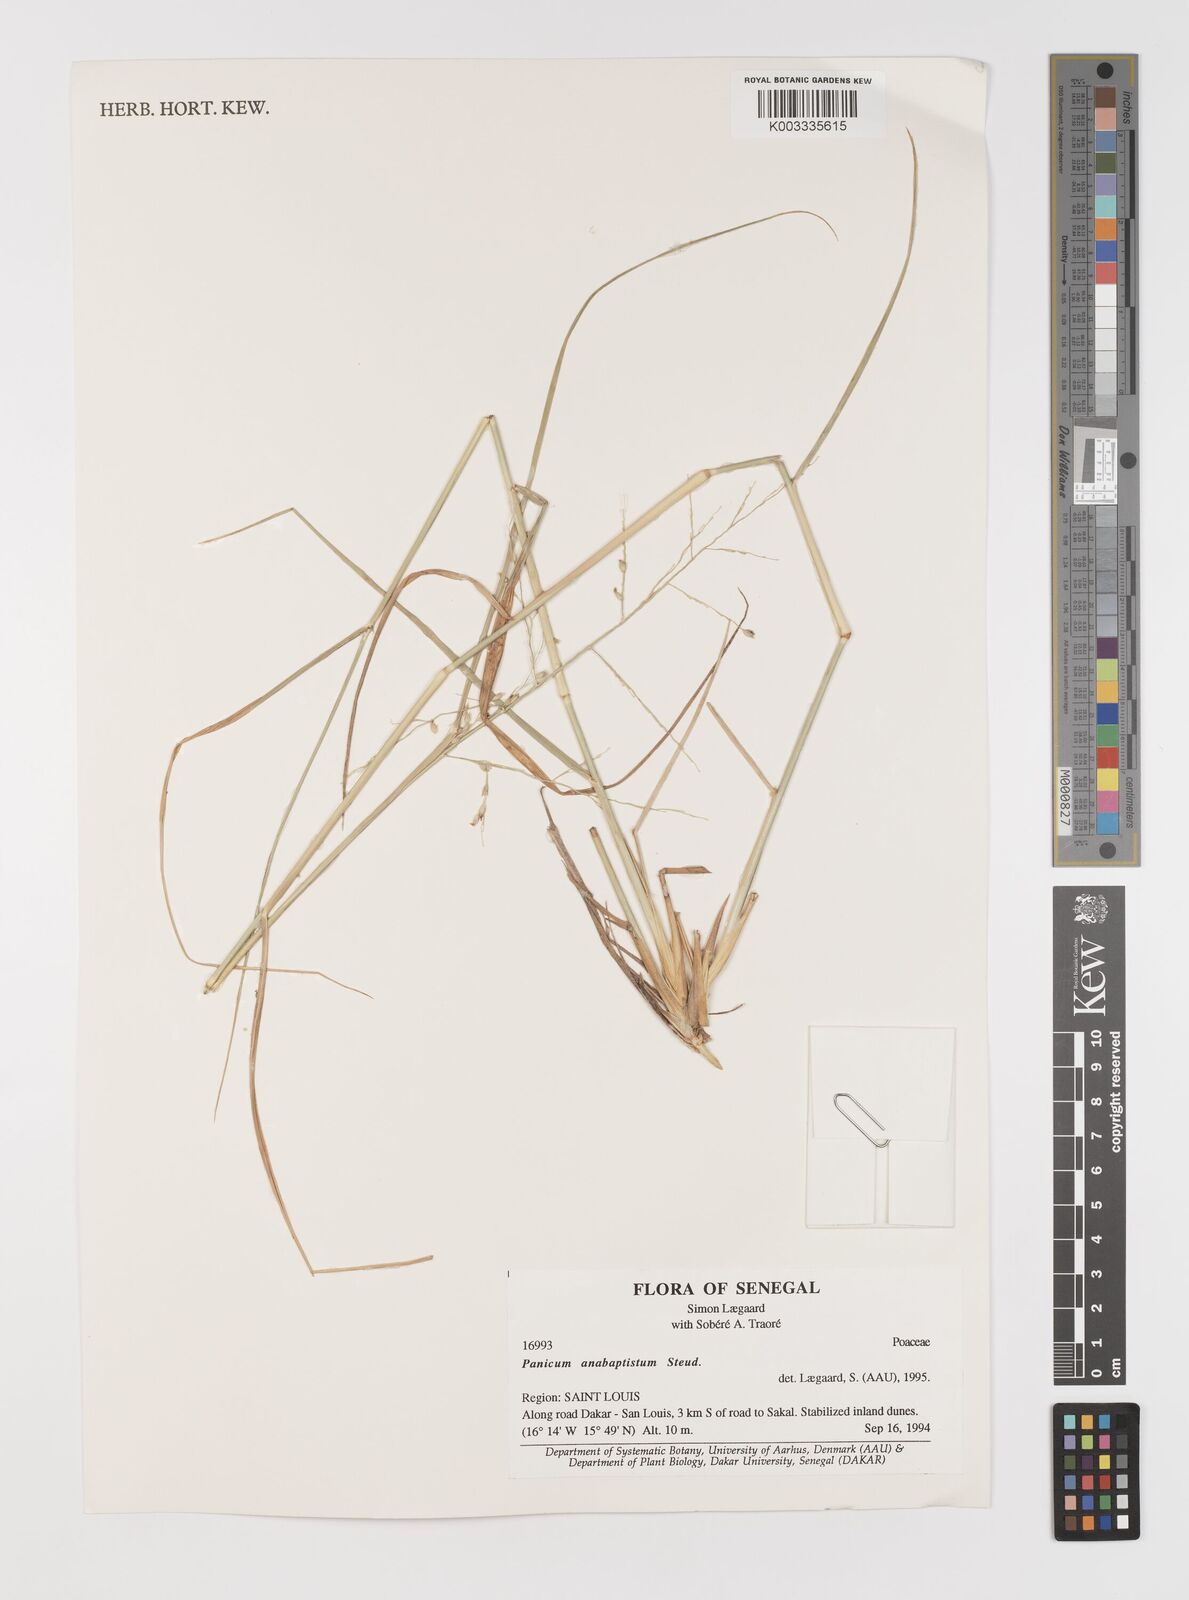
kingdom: Plantae
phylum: Tracheophyta
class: Liliopsida
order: Poales
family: Poaceae
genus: Panicum
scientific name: Panicum anabaptistum
